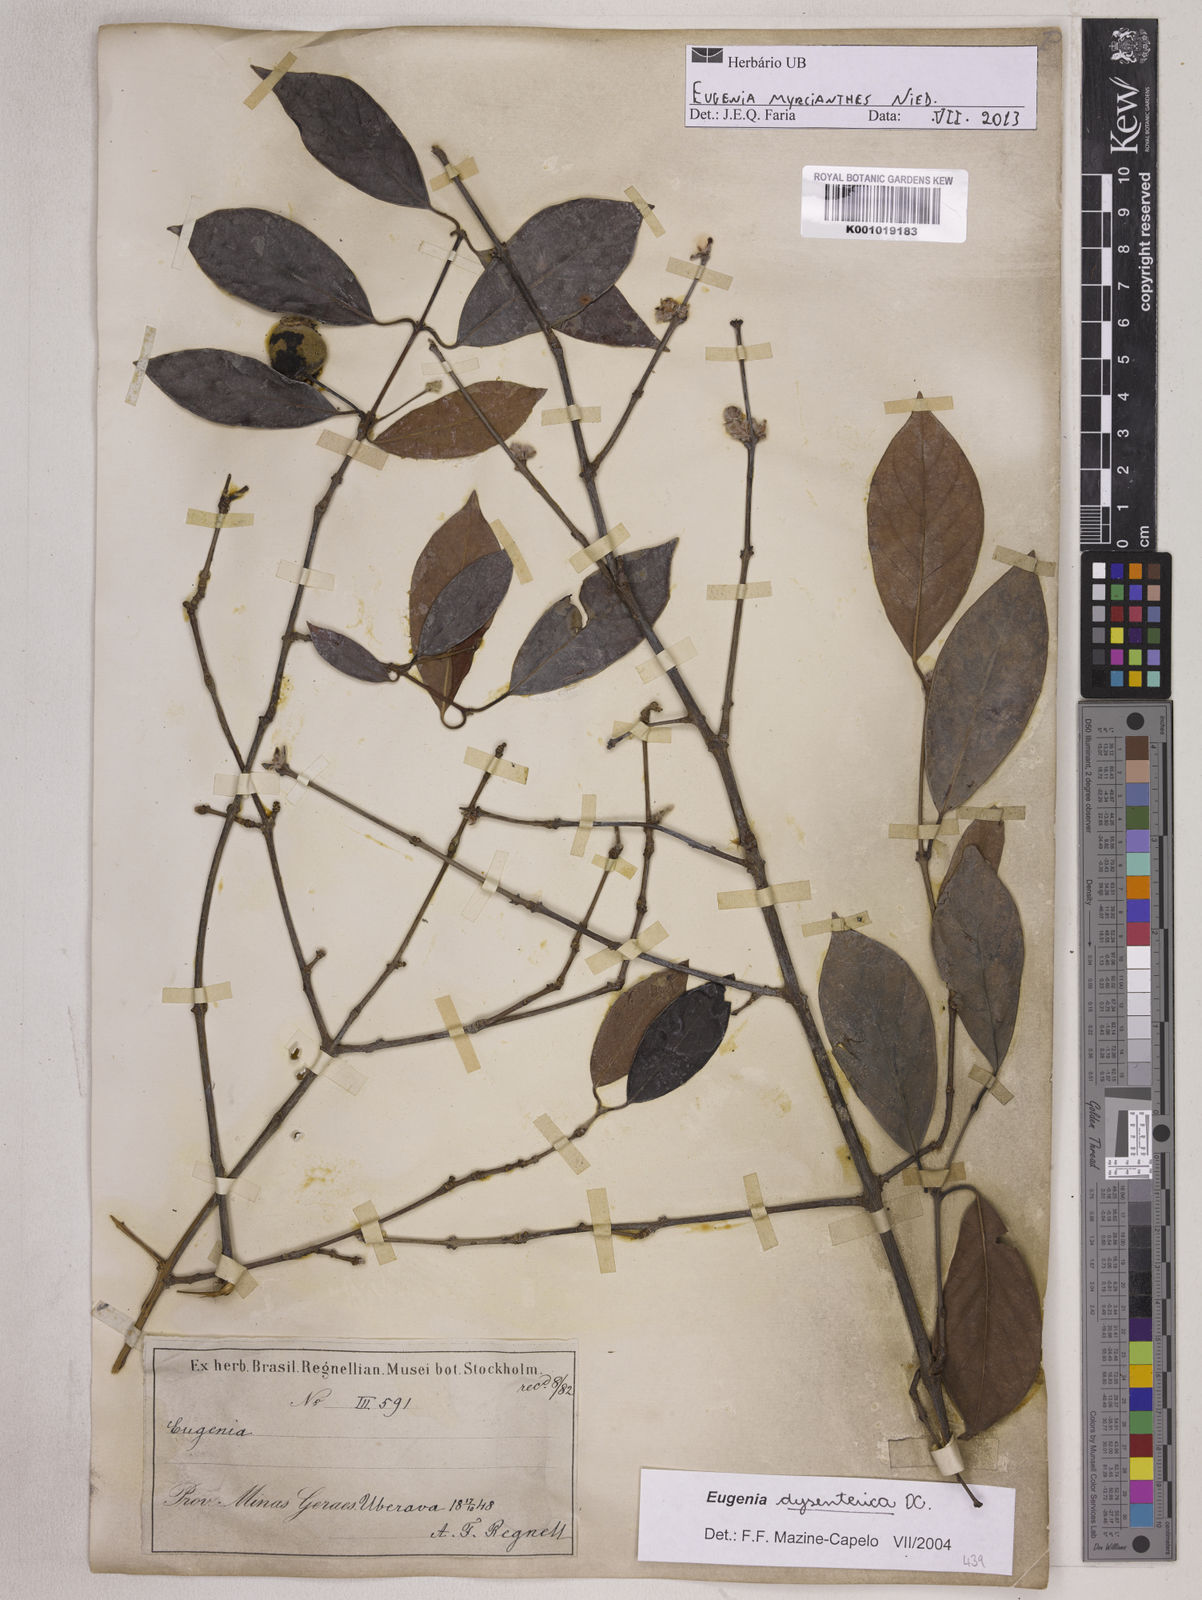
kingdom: Plantae
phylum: Tracheophyta
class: Magnoliopsida
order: Myrtales
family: Myrtaceae
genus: Eugenia
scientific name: Eugenia myrcianthes
